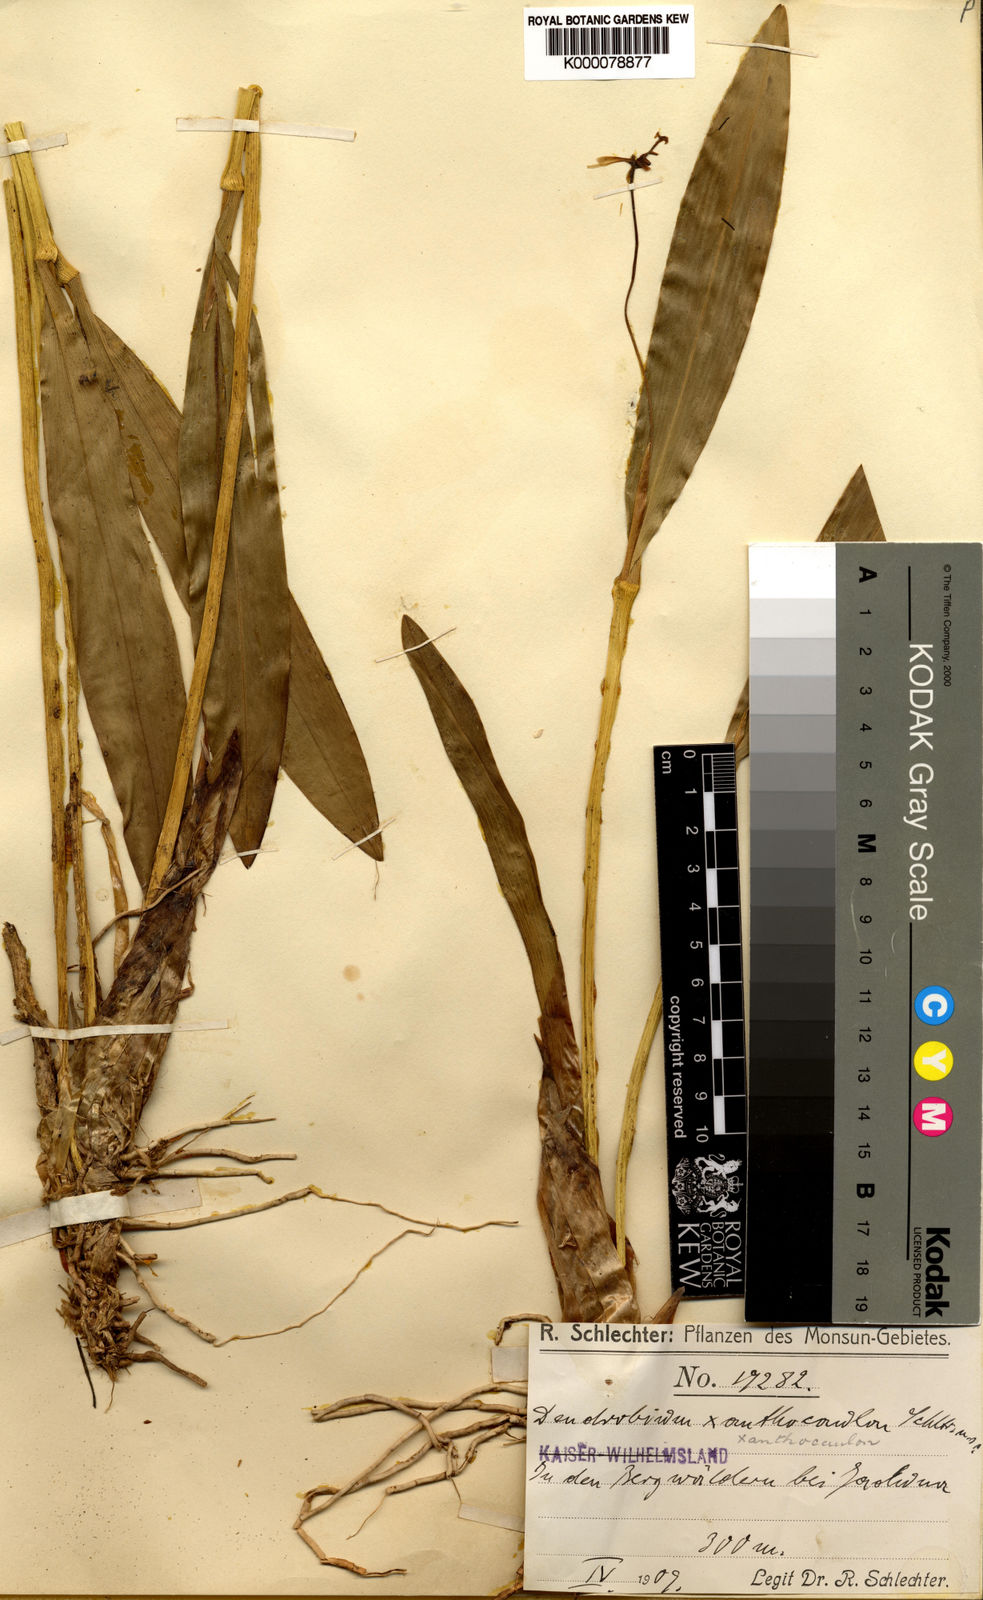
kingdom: Plantae
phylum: Tracheophyta
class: Liliopsida
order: Asparagales
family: Orchidaceae
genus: Dendrobium
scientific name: Dendrobium longicolle
